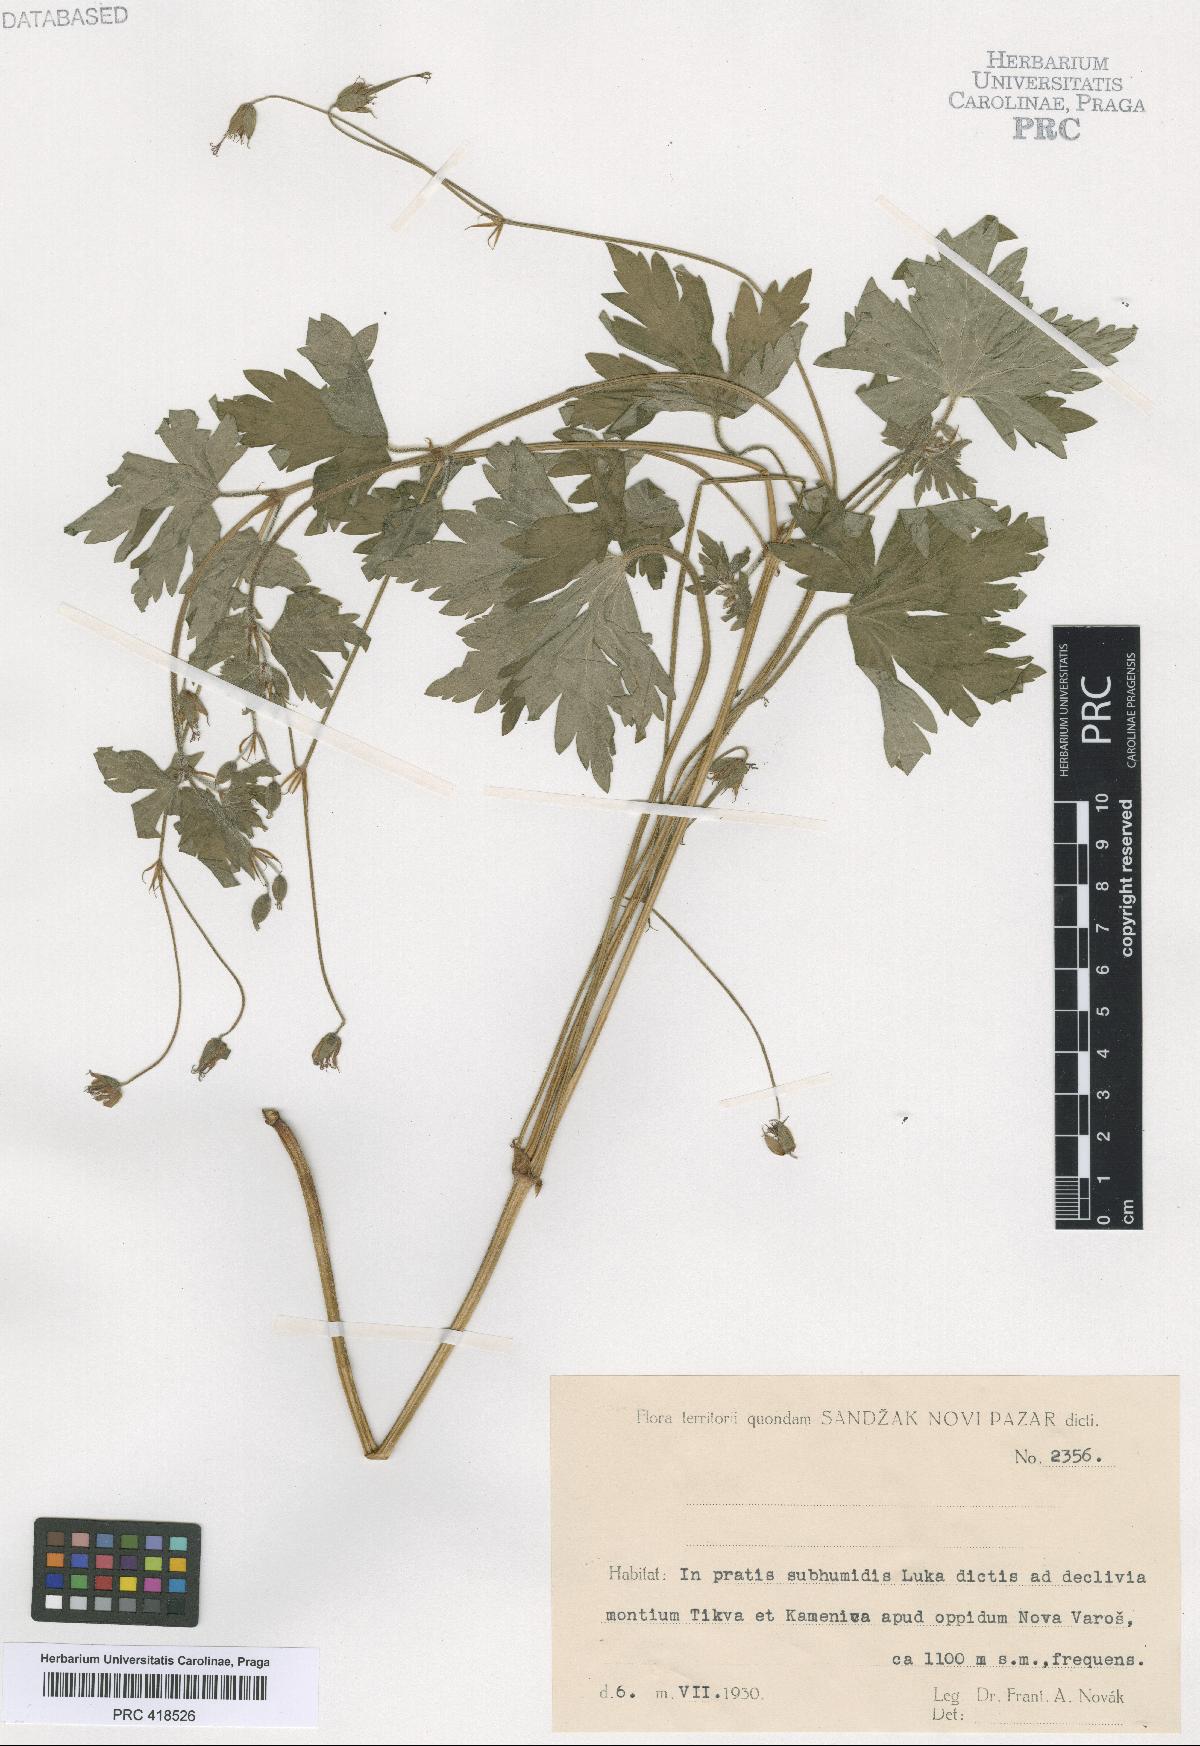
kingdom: Plantae
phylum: Tracheophyta
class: Magnoliopsida
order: Geraniales
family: Geraniaceae
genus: Geranium
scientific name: Geranium palustre
